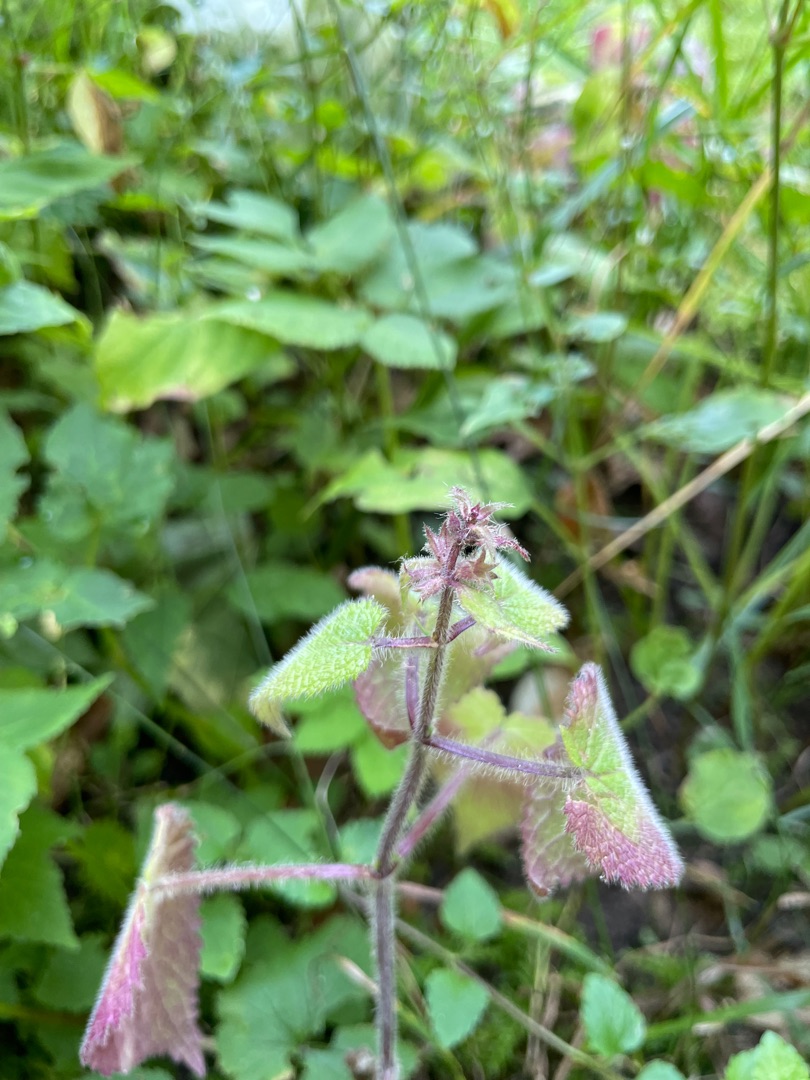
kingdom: Plantae
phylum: Tracheophyta
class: Magnoliopsida
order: Lamiales
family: Lamiaceae
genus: Stachys
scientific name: Stachys sylvatica
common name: Skov-galtetand
